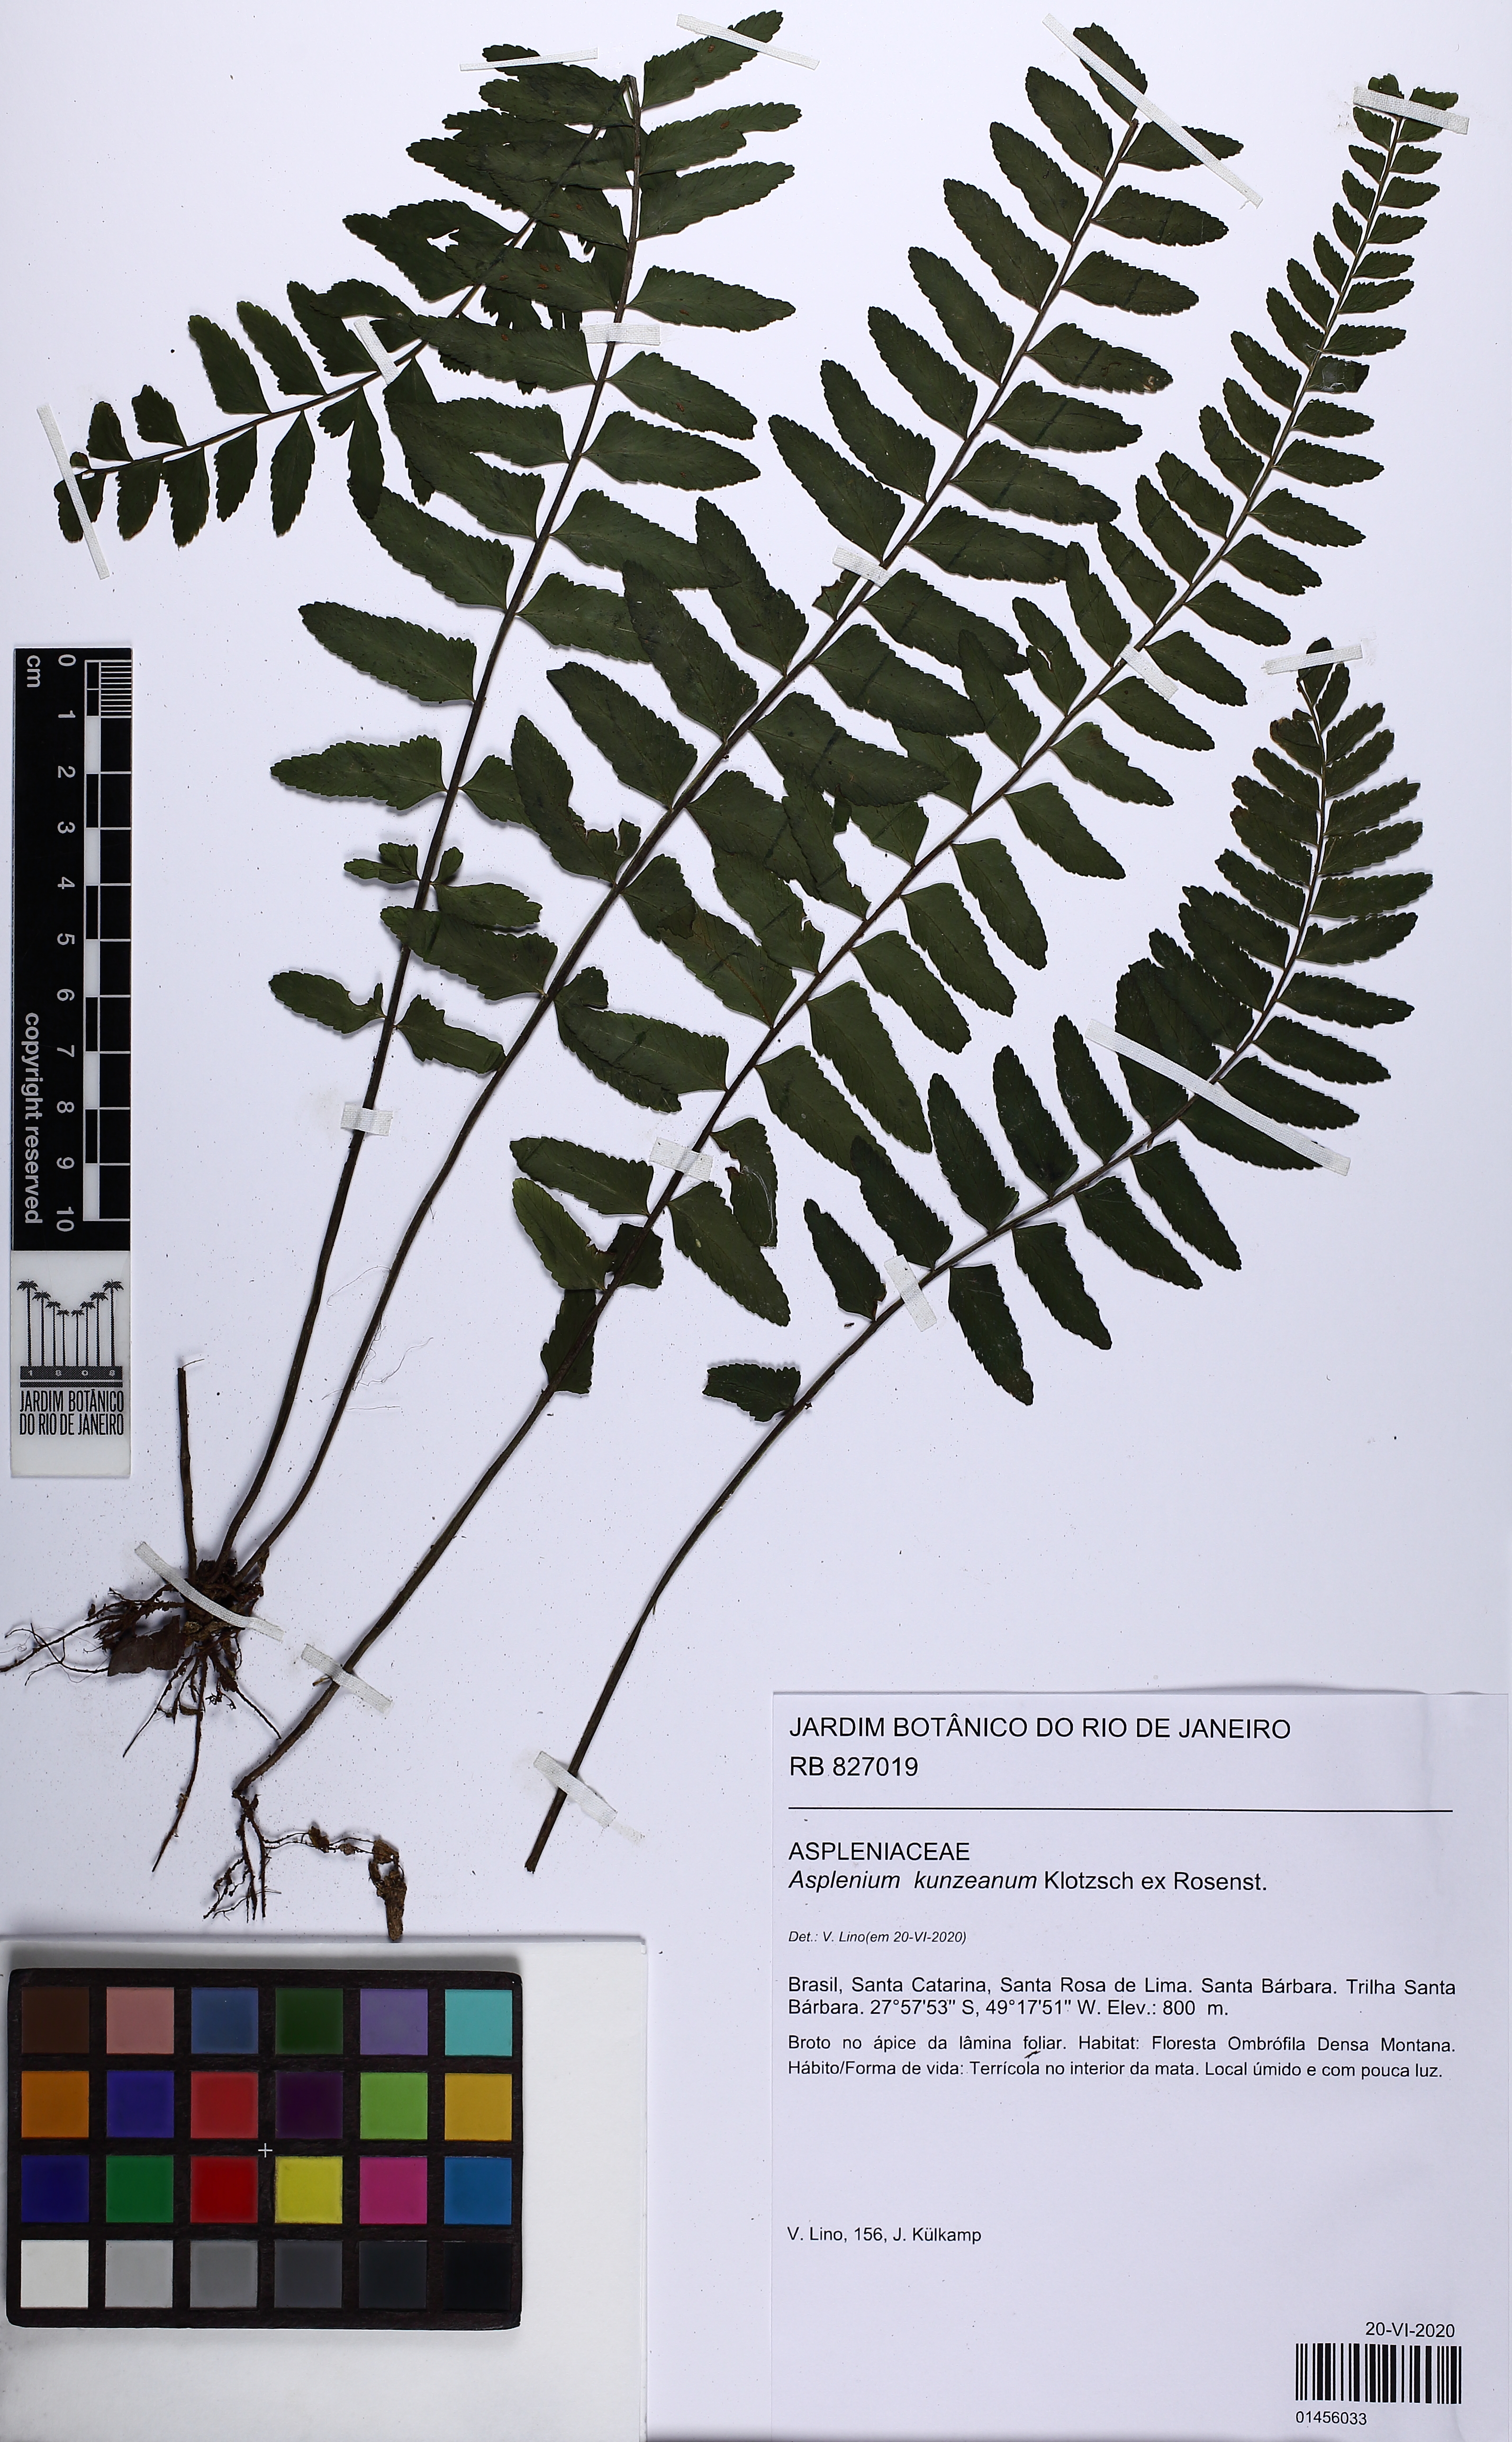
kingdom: Plantae
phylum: Tracheophyta
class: Polypodiopsida
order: Polypodiales
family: Aspleniaceae
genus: Asplenium
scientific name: Asplenium kunzeanum
